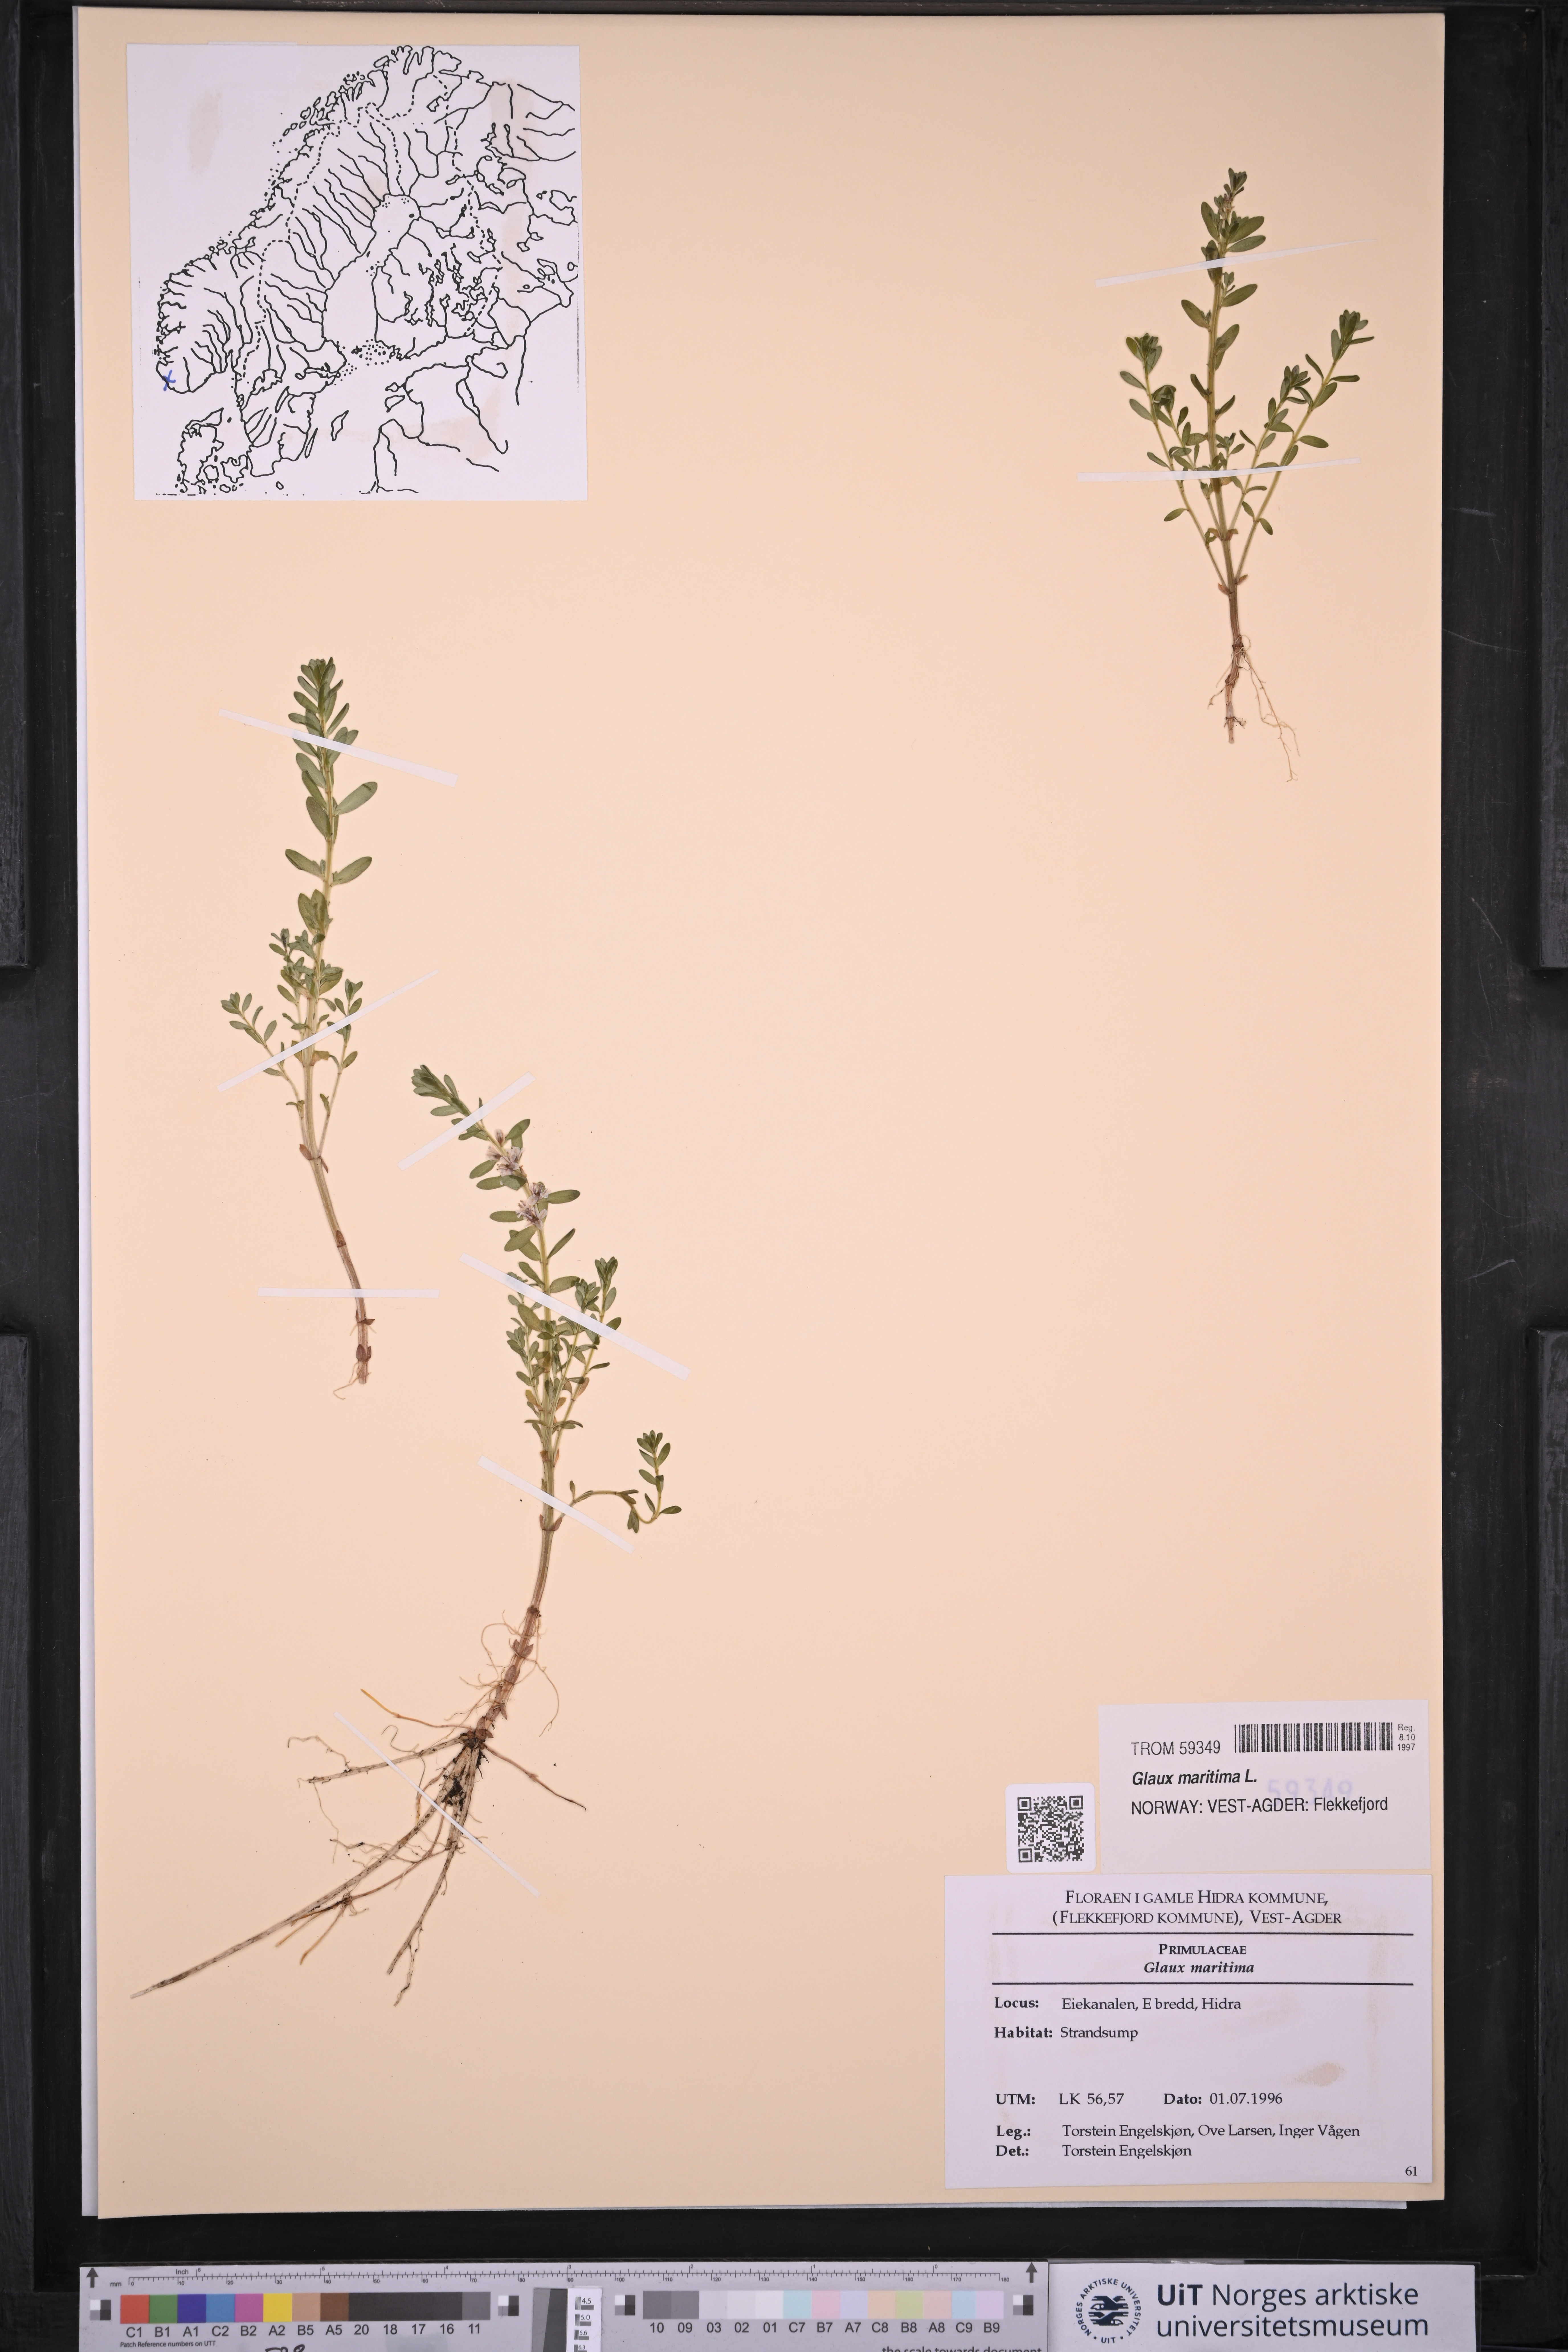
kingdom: Plantae
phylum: Tracheophyta
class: Magnoliopsida
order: Ericales
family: Primulaceae
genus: Lysimachia
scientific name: Lysimachia maritima
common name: Sea milkwort
